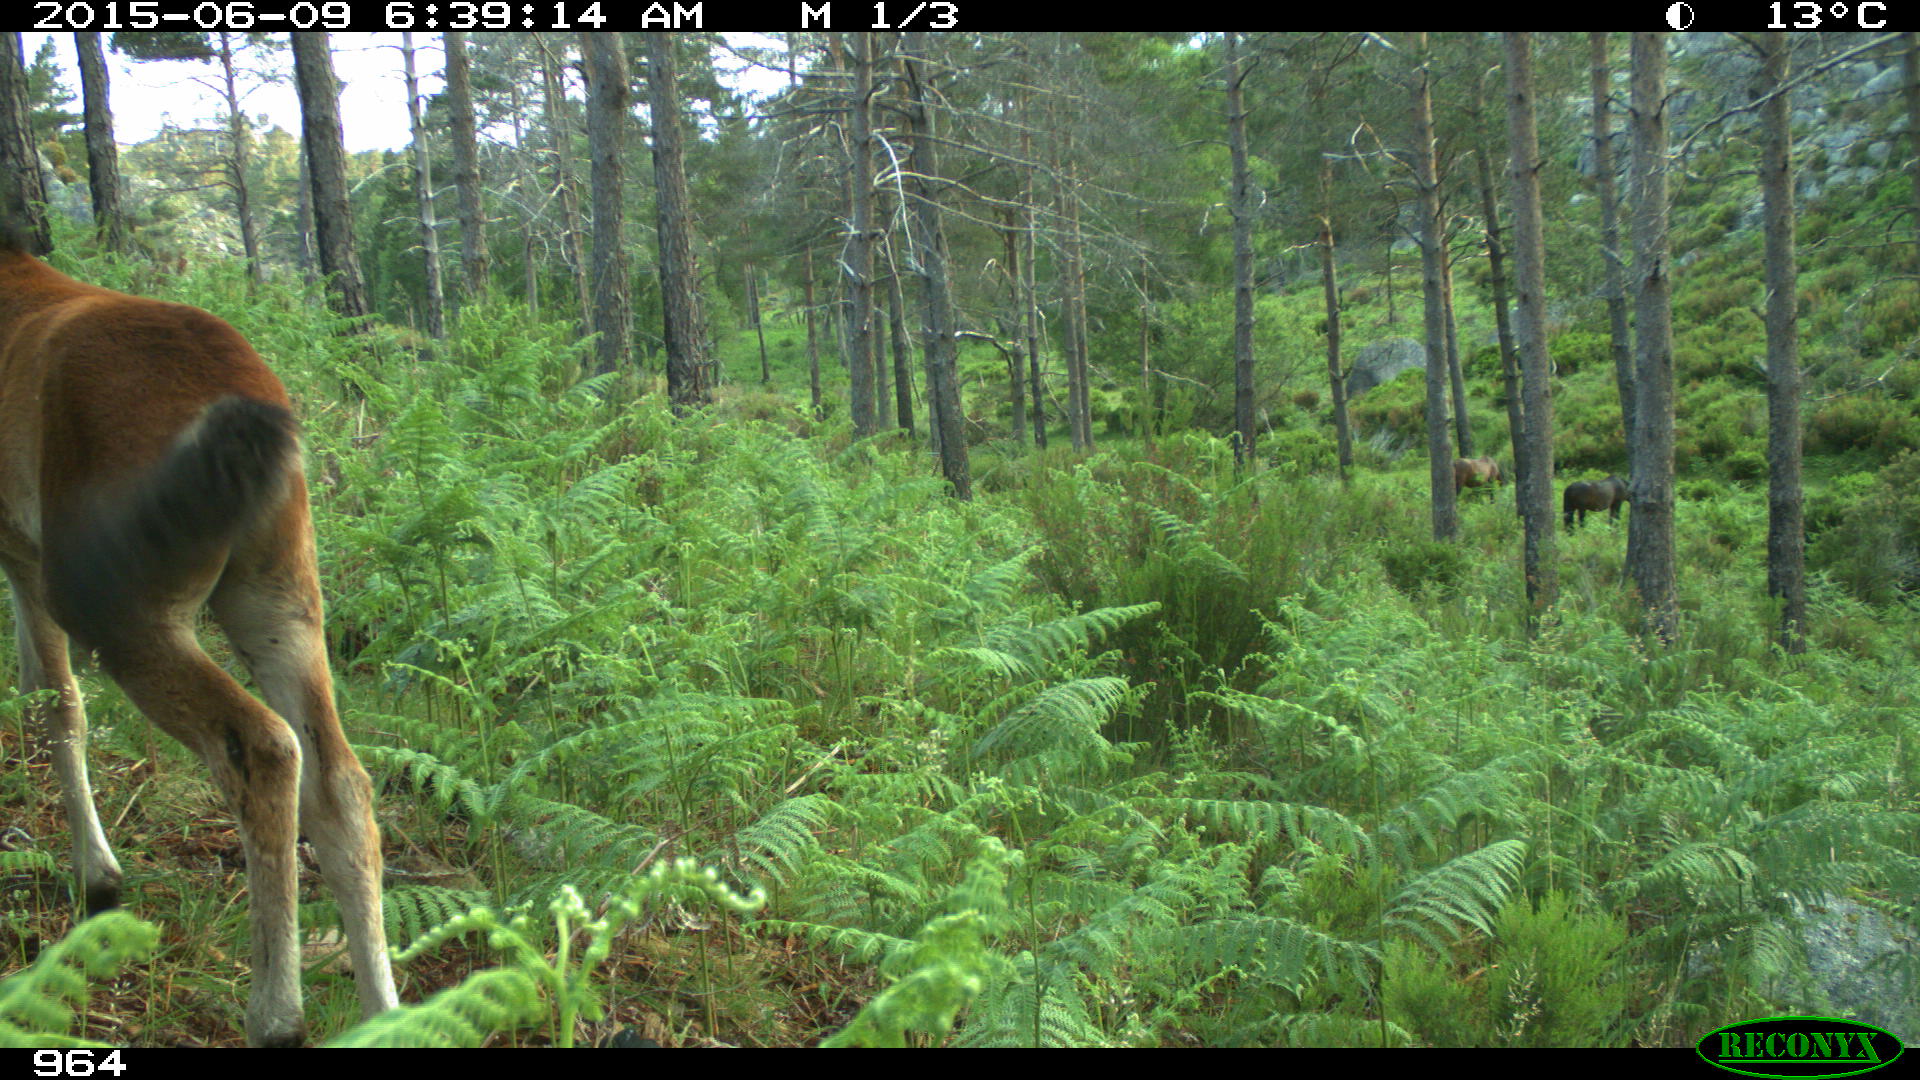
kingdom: Animalia
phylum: Chordata
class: Mammalia
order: Perissodactyla
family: Equidae
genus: Equus
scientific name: Equus caballus
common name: Horse
